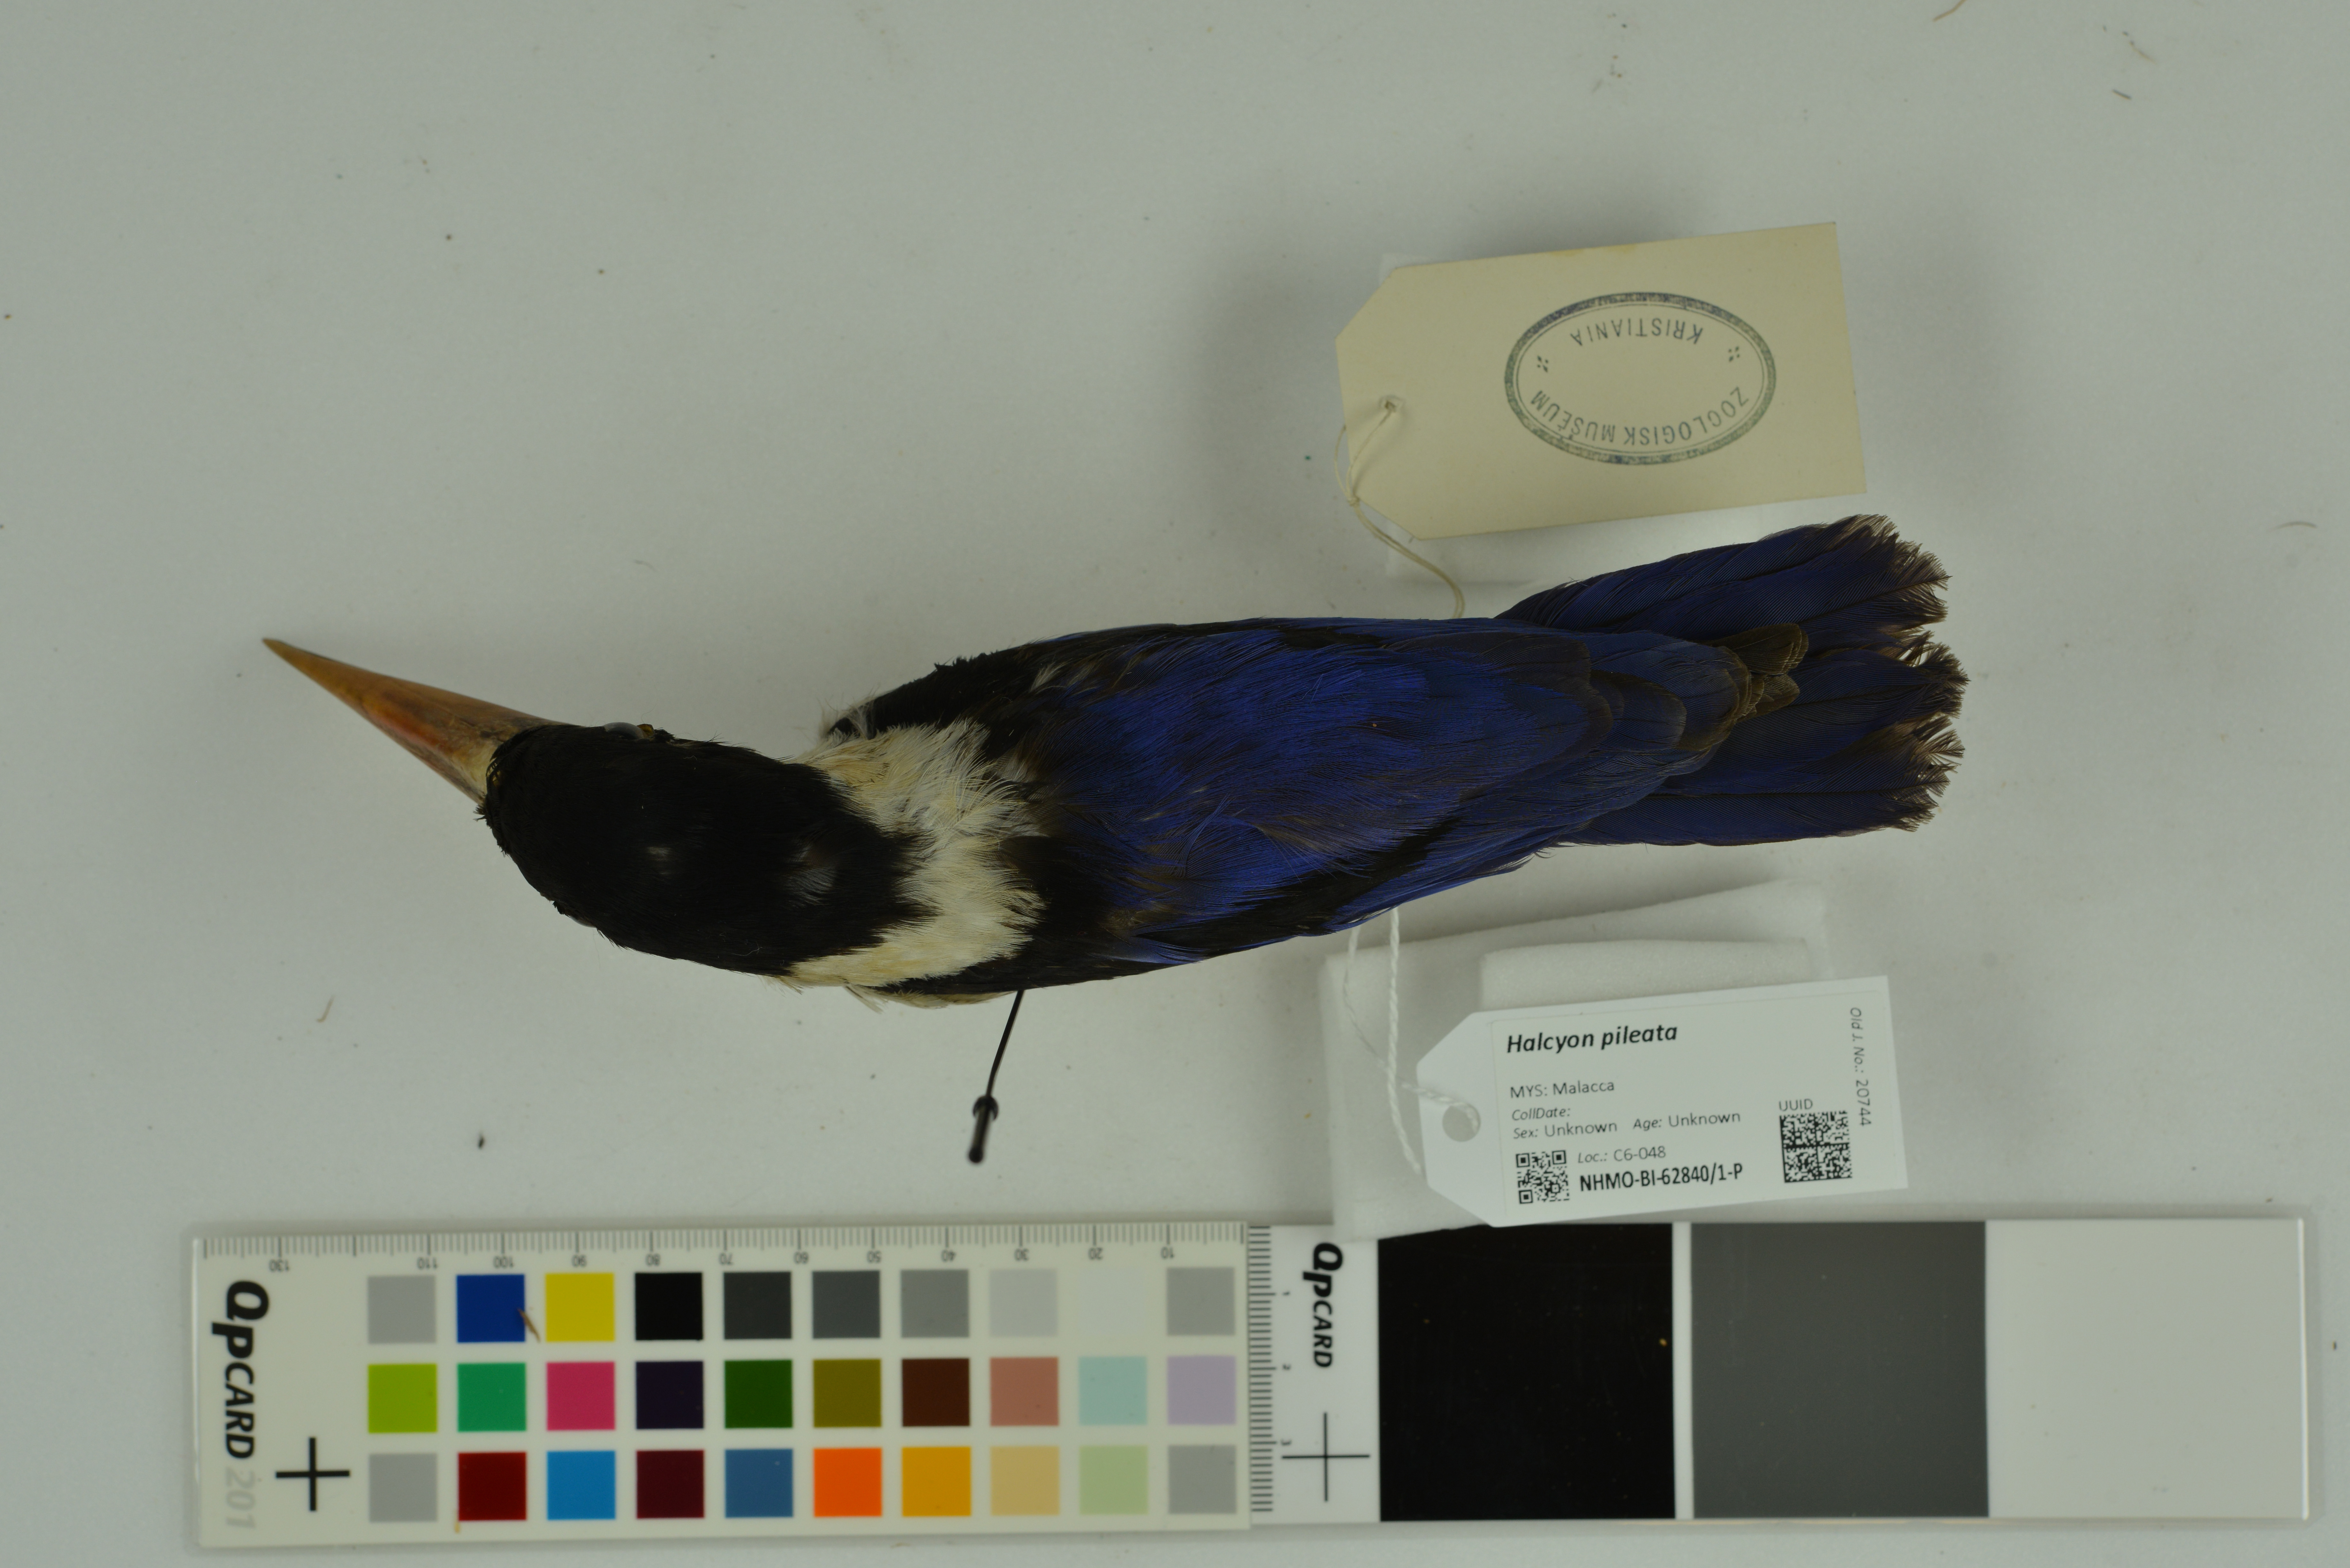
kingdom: Animalia
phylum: Chordata
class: Aves
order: Coraciiformes
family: Alcedinidae
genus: Halcyon
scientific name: Halcyon pileata
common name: Black-capped kingfisher
